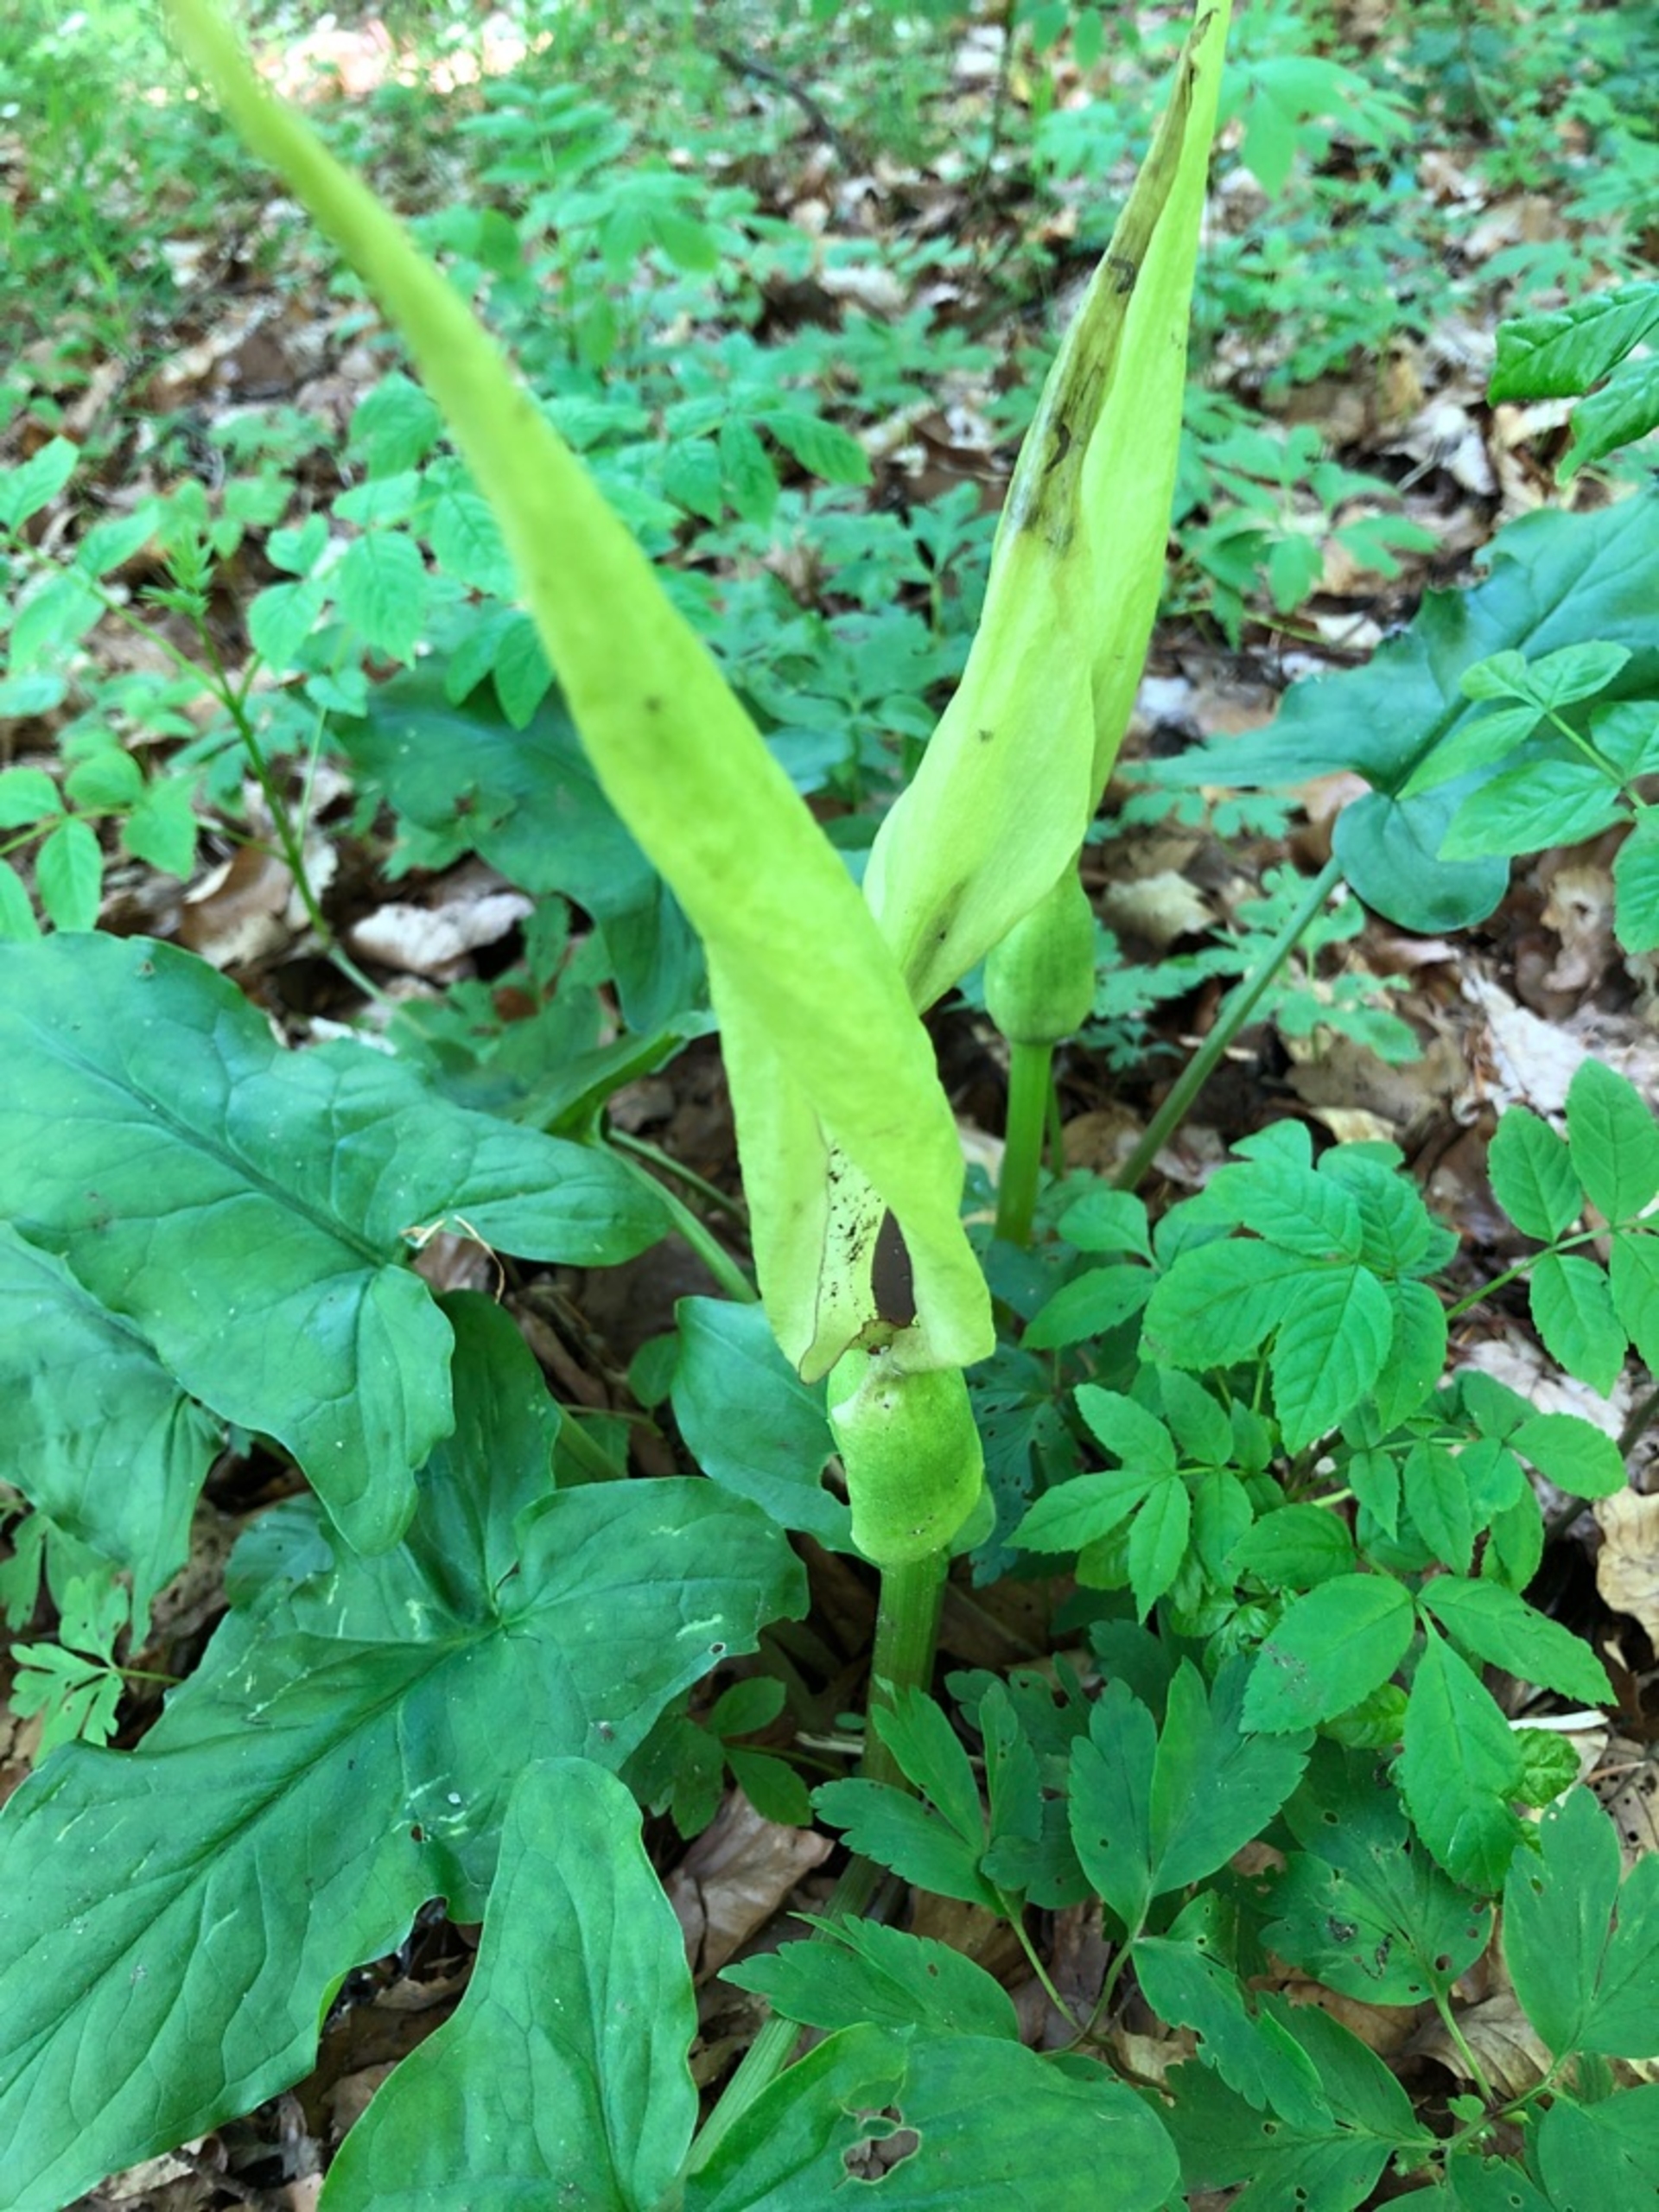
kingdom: Plantae
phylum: Tracheophyta
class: Liliopsida
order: Alismatales
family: Araceae
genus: Arum
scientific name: Arum maculatum
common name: Plettet arum
